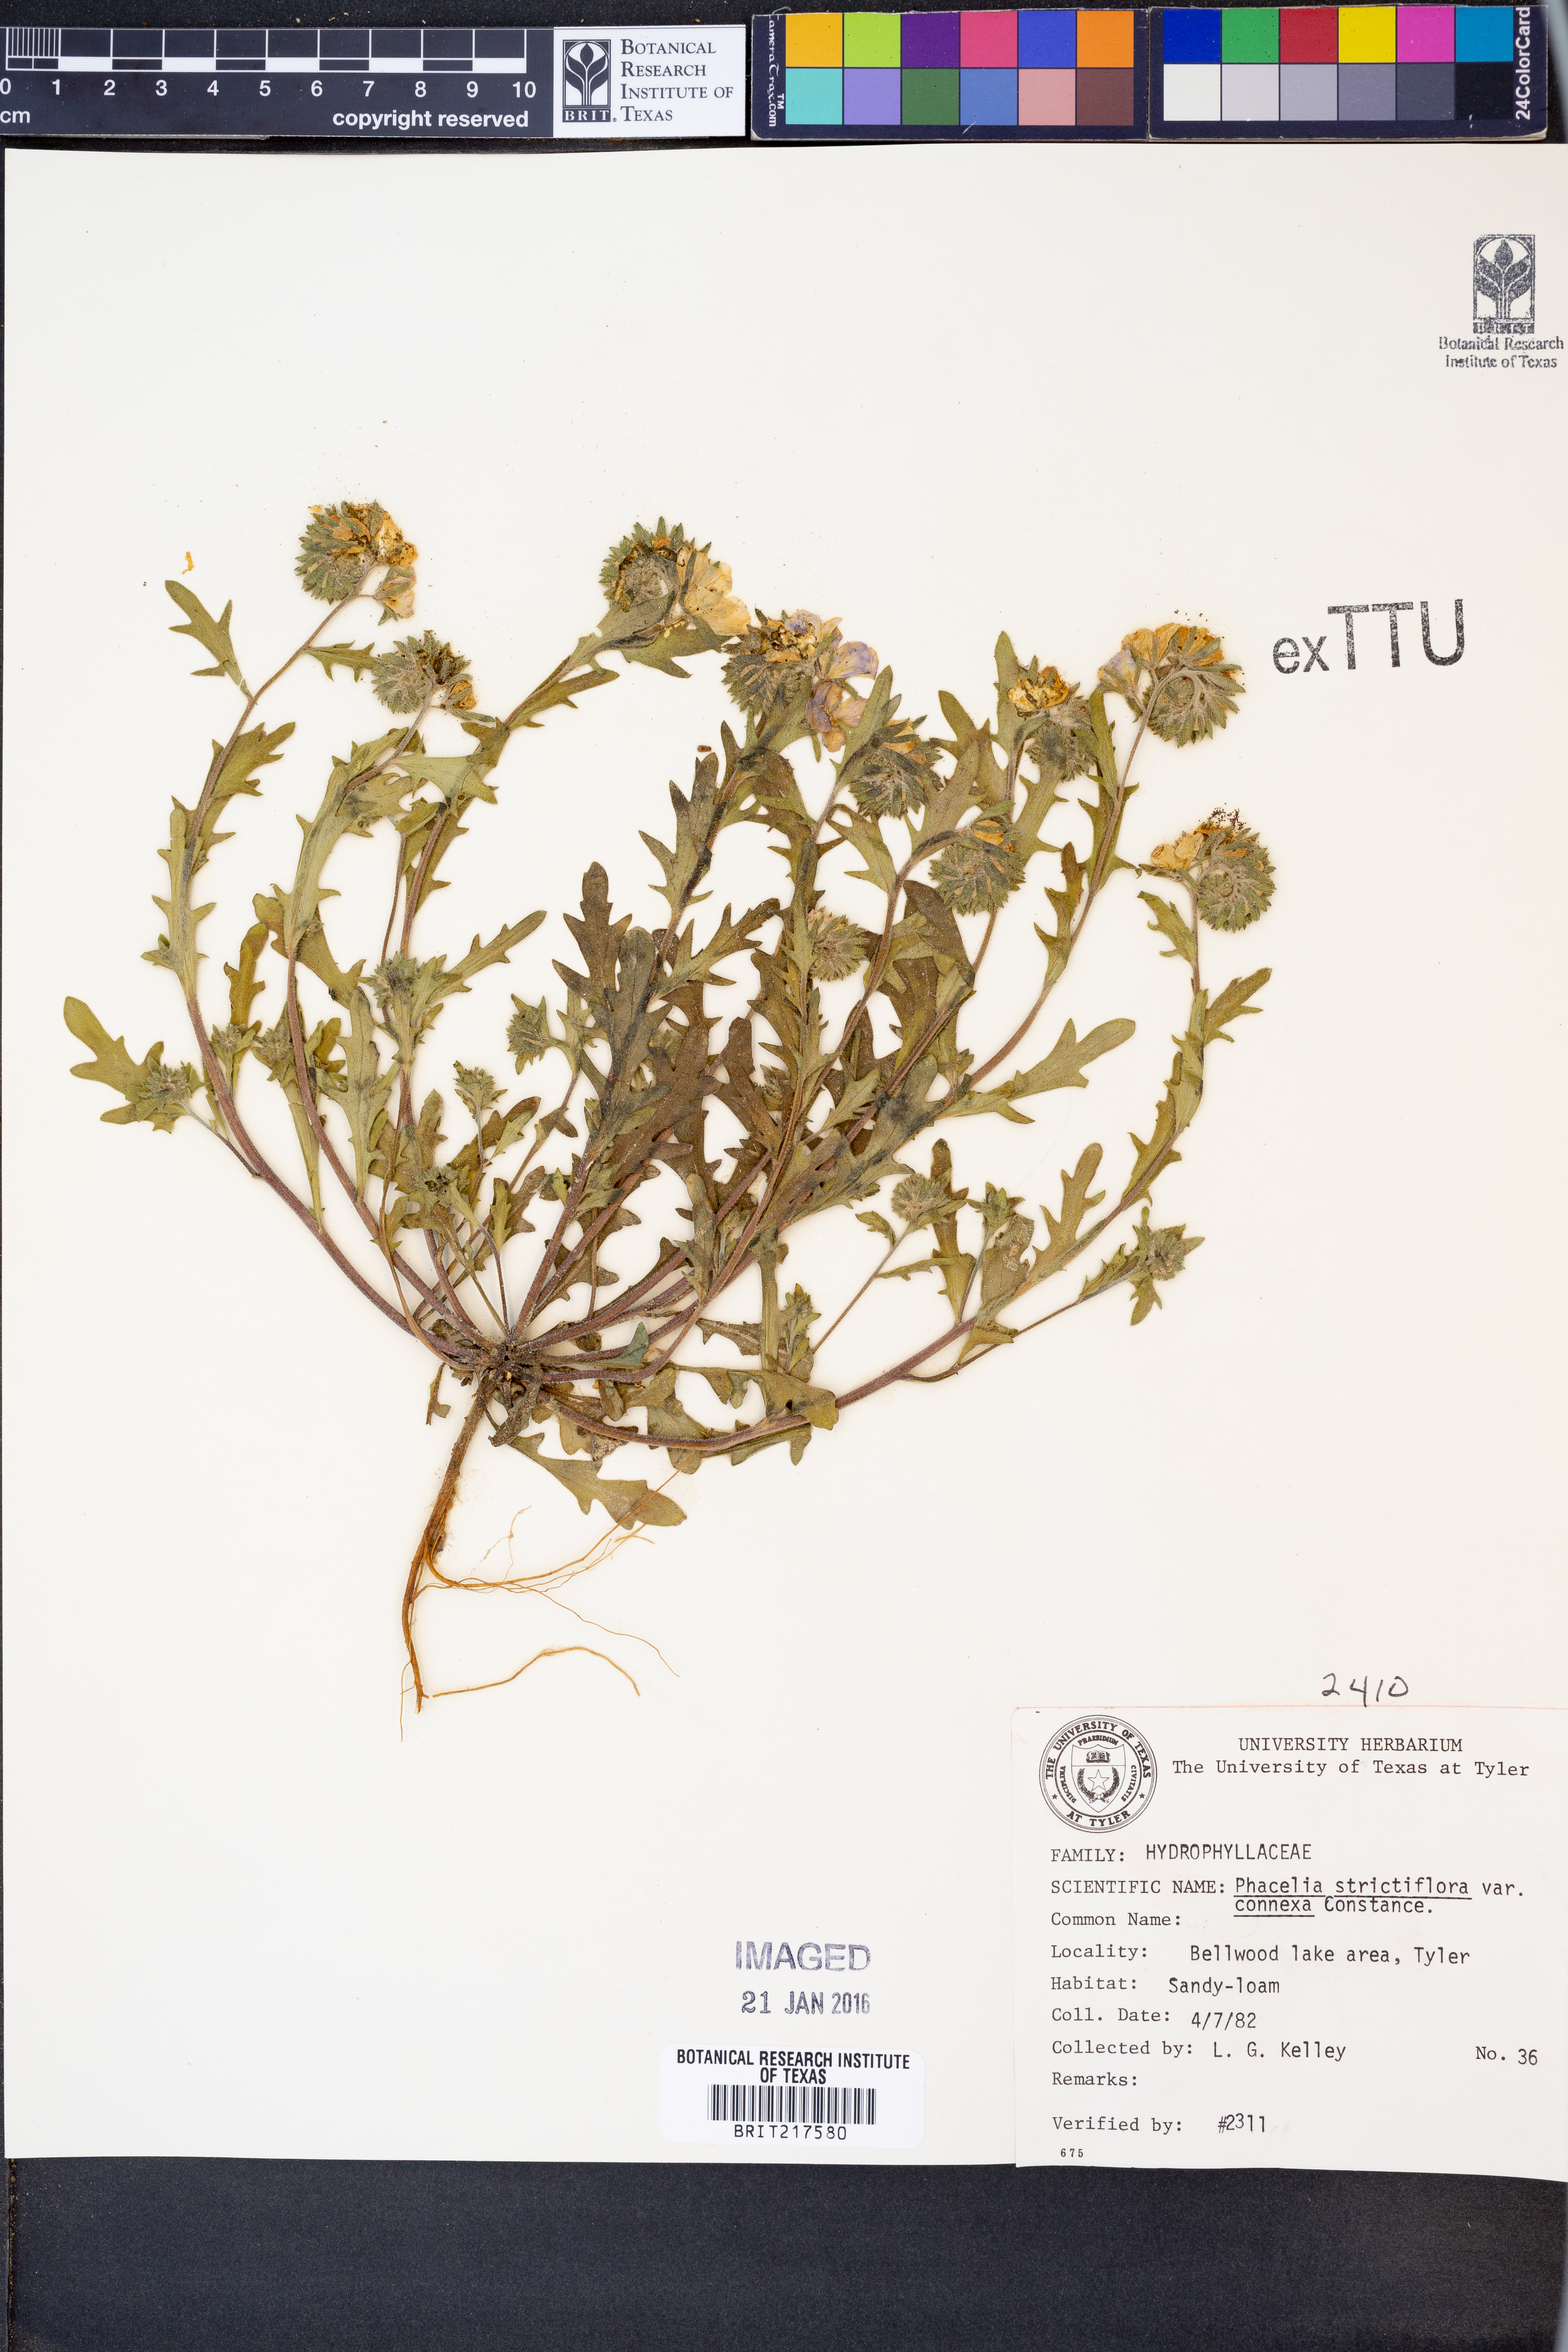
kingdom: Plantae
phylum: Tracheophyta
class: Magnoliopsida
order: Boraginales
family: Hydrophyllaceae
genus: Phacelia
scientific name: Phacelia strictiflora
